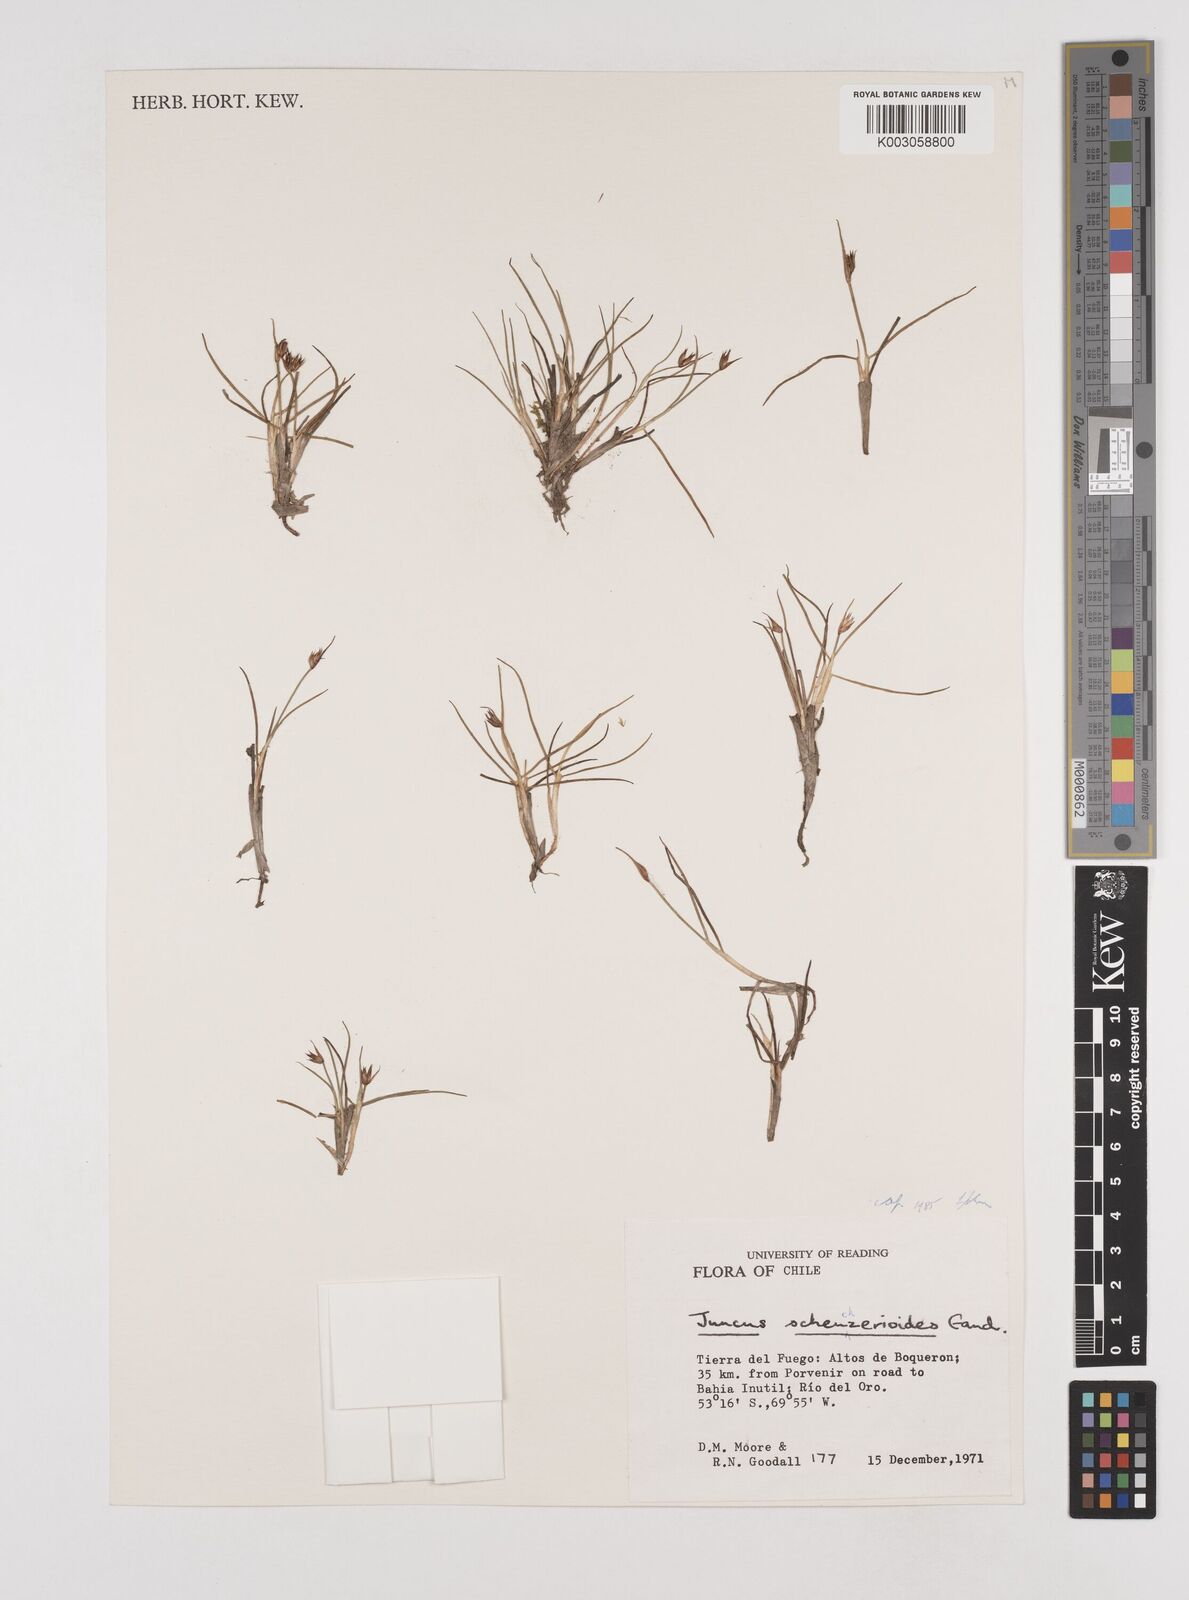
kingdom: Plantae
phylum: Tracheophyta
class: Liliopsida
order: Poales
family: Juncaceae
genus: Juncus
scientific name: Juncus scheuchzerioides
